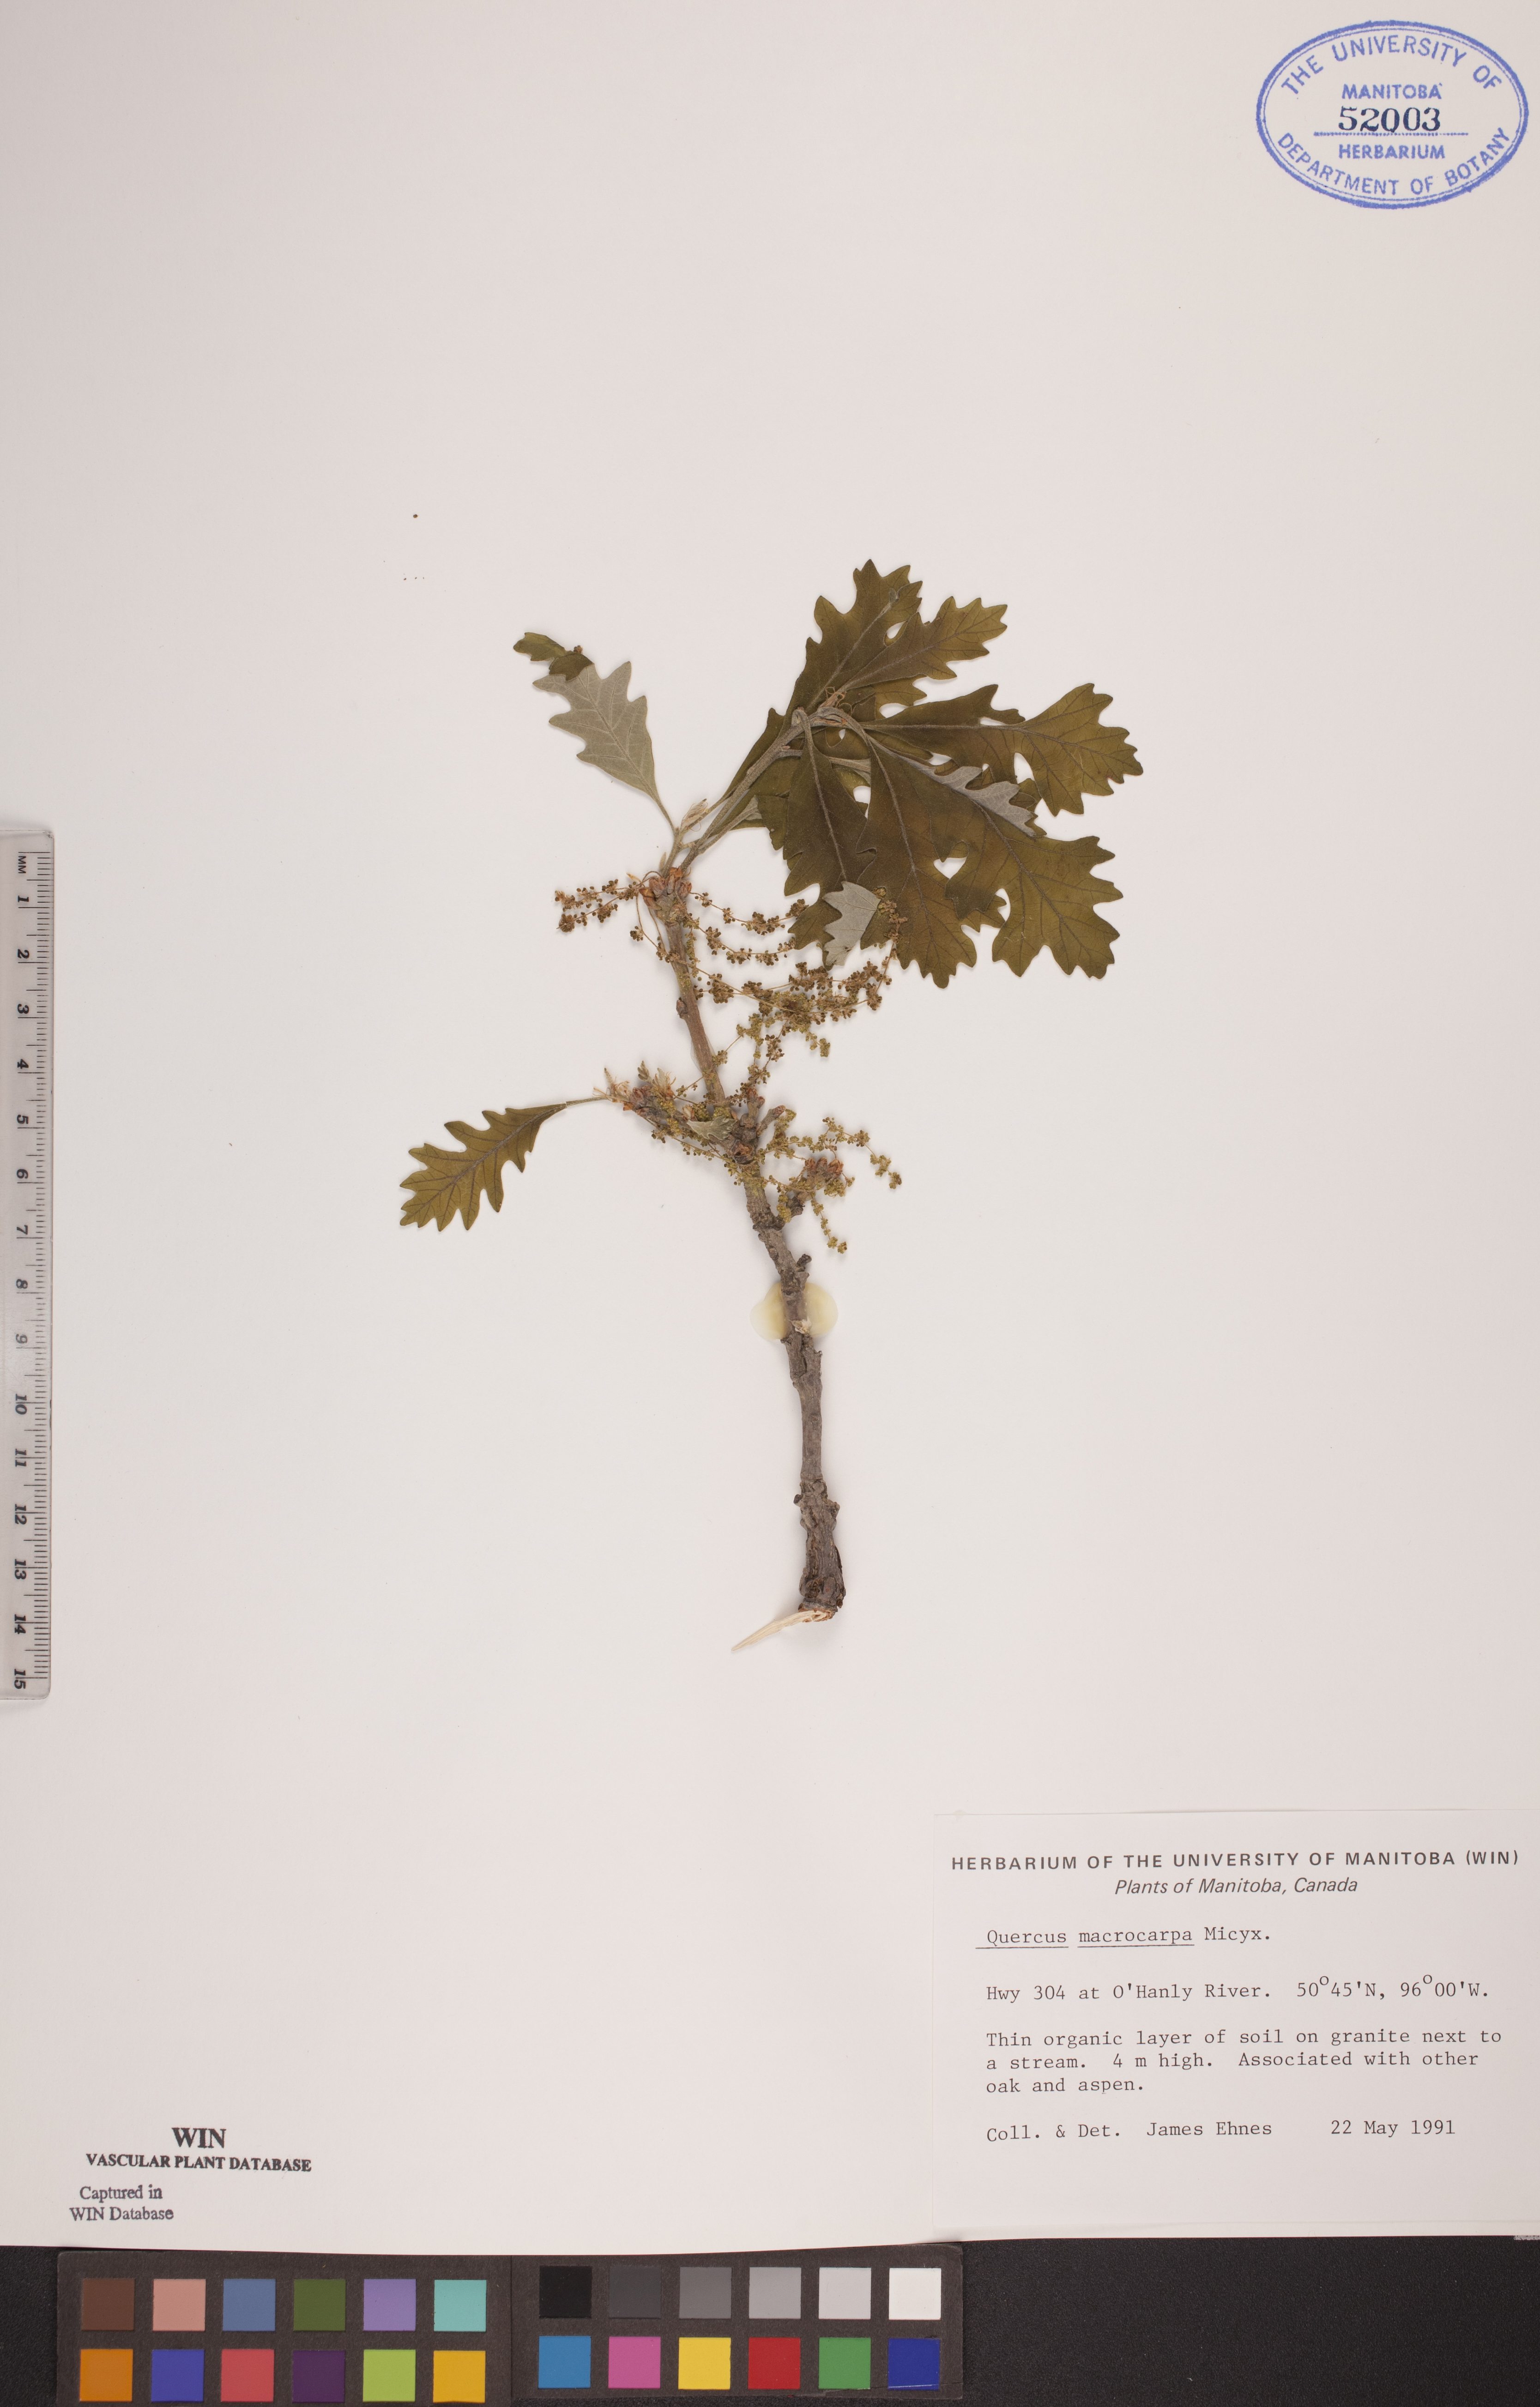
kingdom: Plantae
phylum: Tracheophyta
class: Magnoliopsida
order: Fagales
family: Fagaceae
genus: Quercus
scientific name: Quercus macrocarpa
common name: Bur oak
